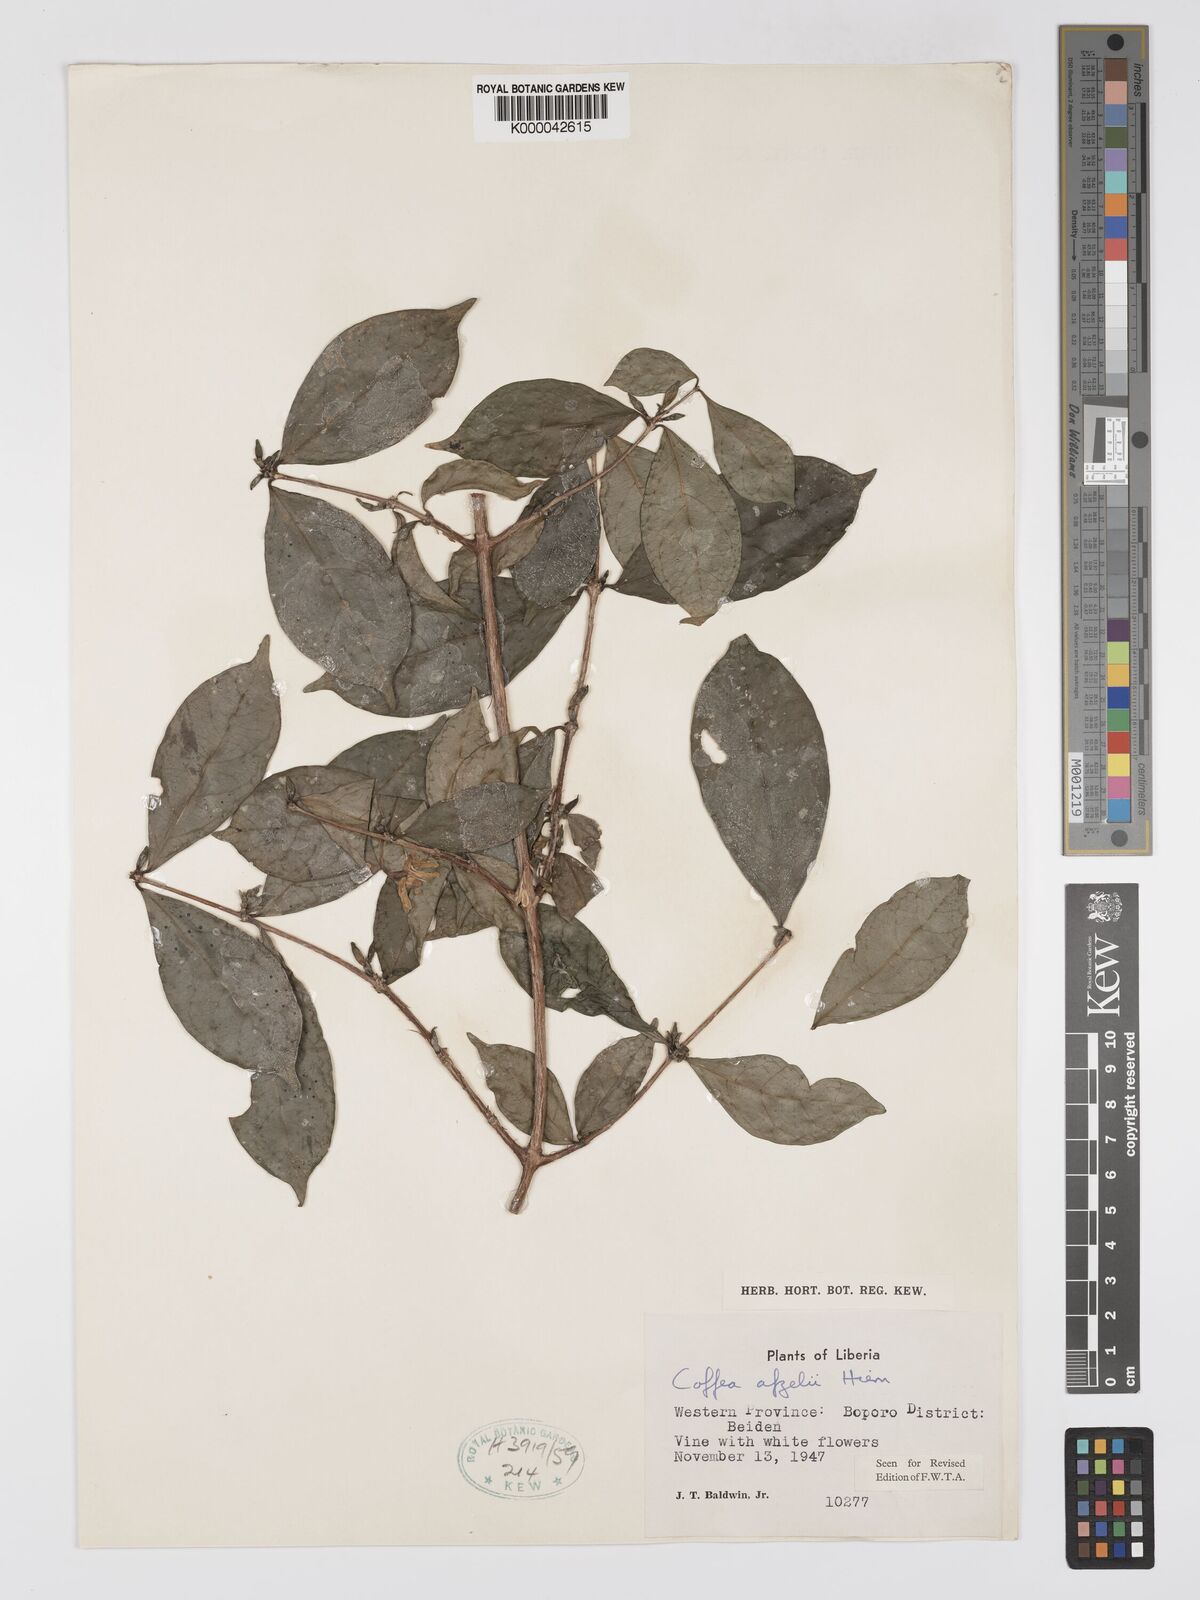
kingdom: Plantae
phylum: Tracheophyta
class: Magnoliopsida
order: Gentianales
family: Rubiaceae
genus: Argocoffeopsis
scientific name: Argocoffeopsis afzelii
